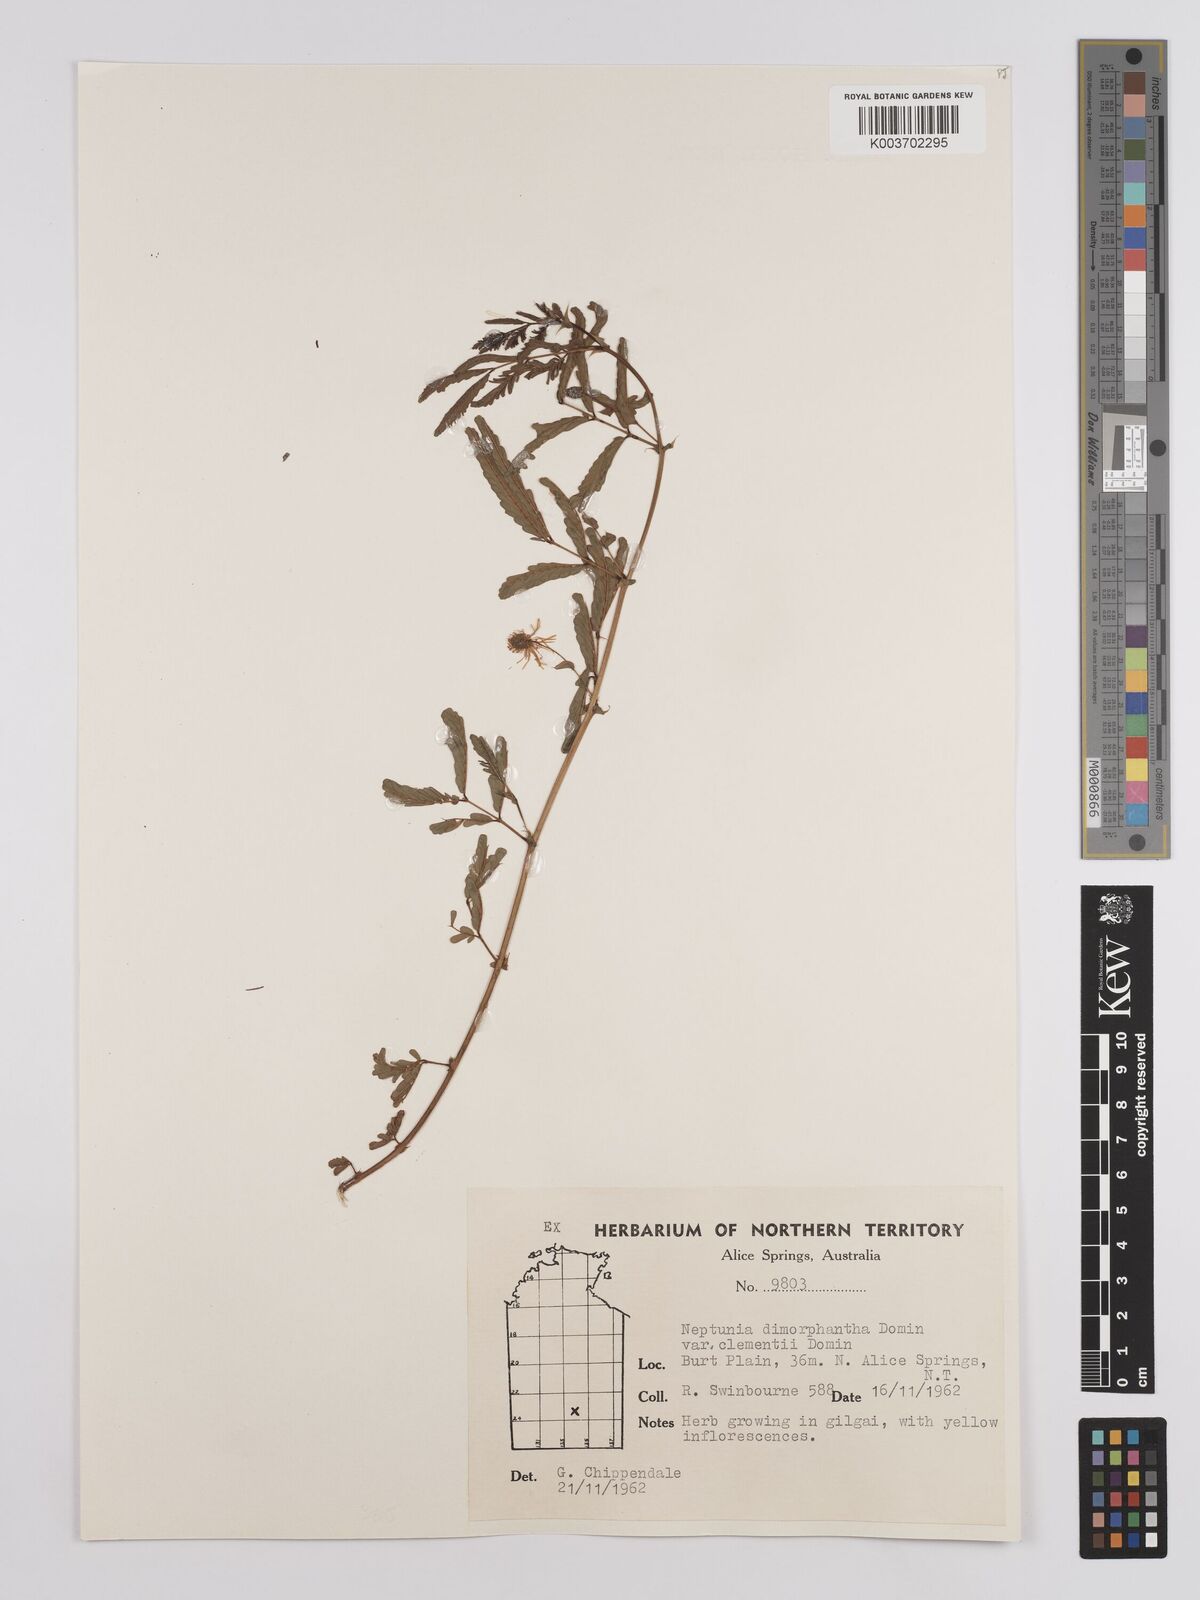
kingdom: Plantae
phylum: Tracheophyta
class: Magnoliopsida
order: Fabales
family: Fabaceae
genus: Neptunia
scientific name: Neptunia dimorphantha
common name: Sensitive-plant
